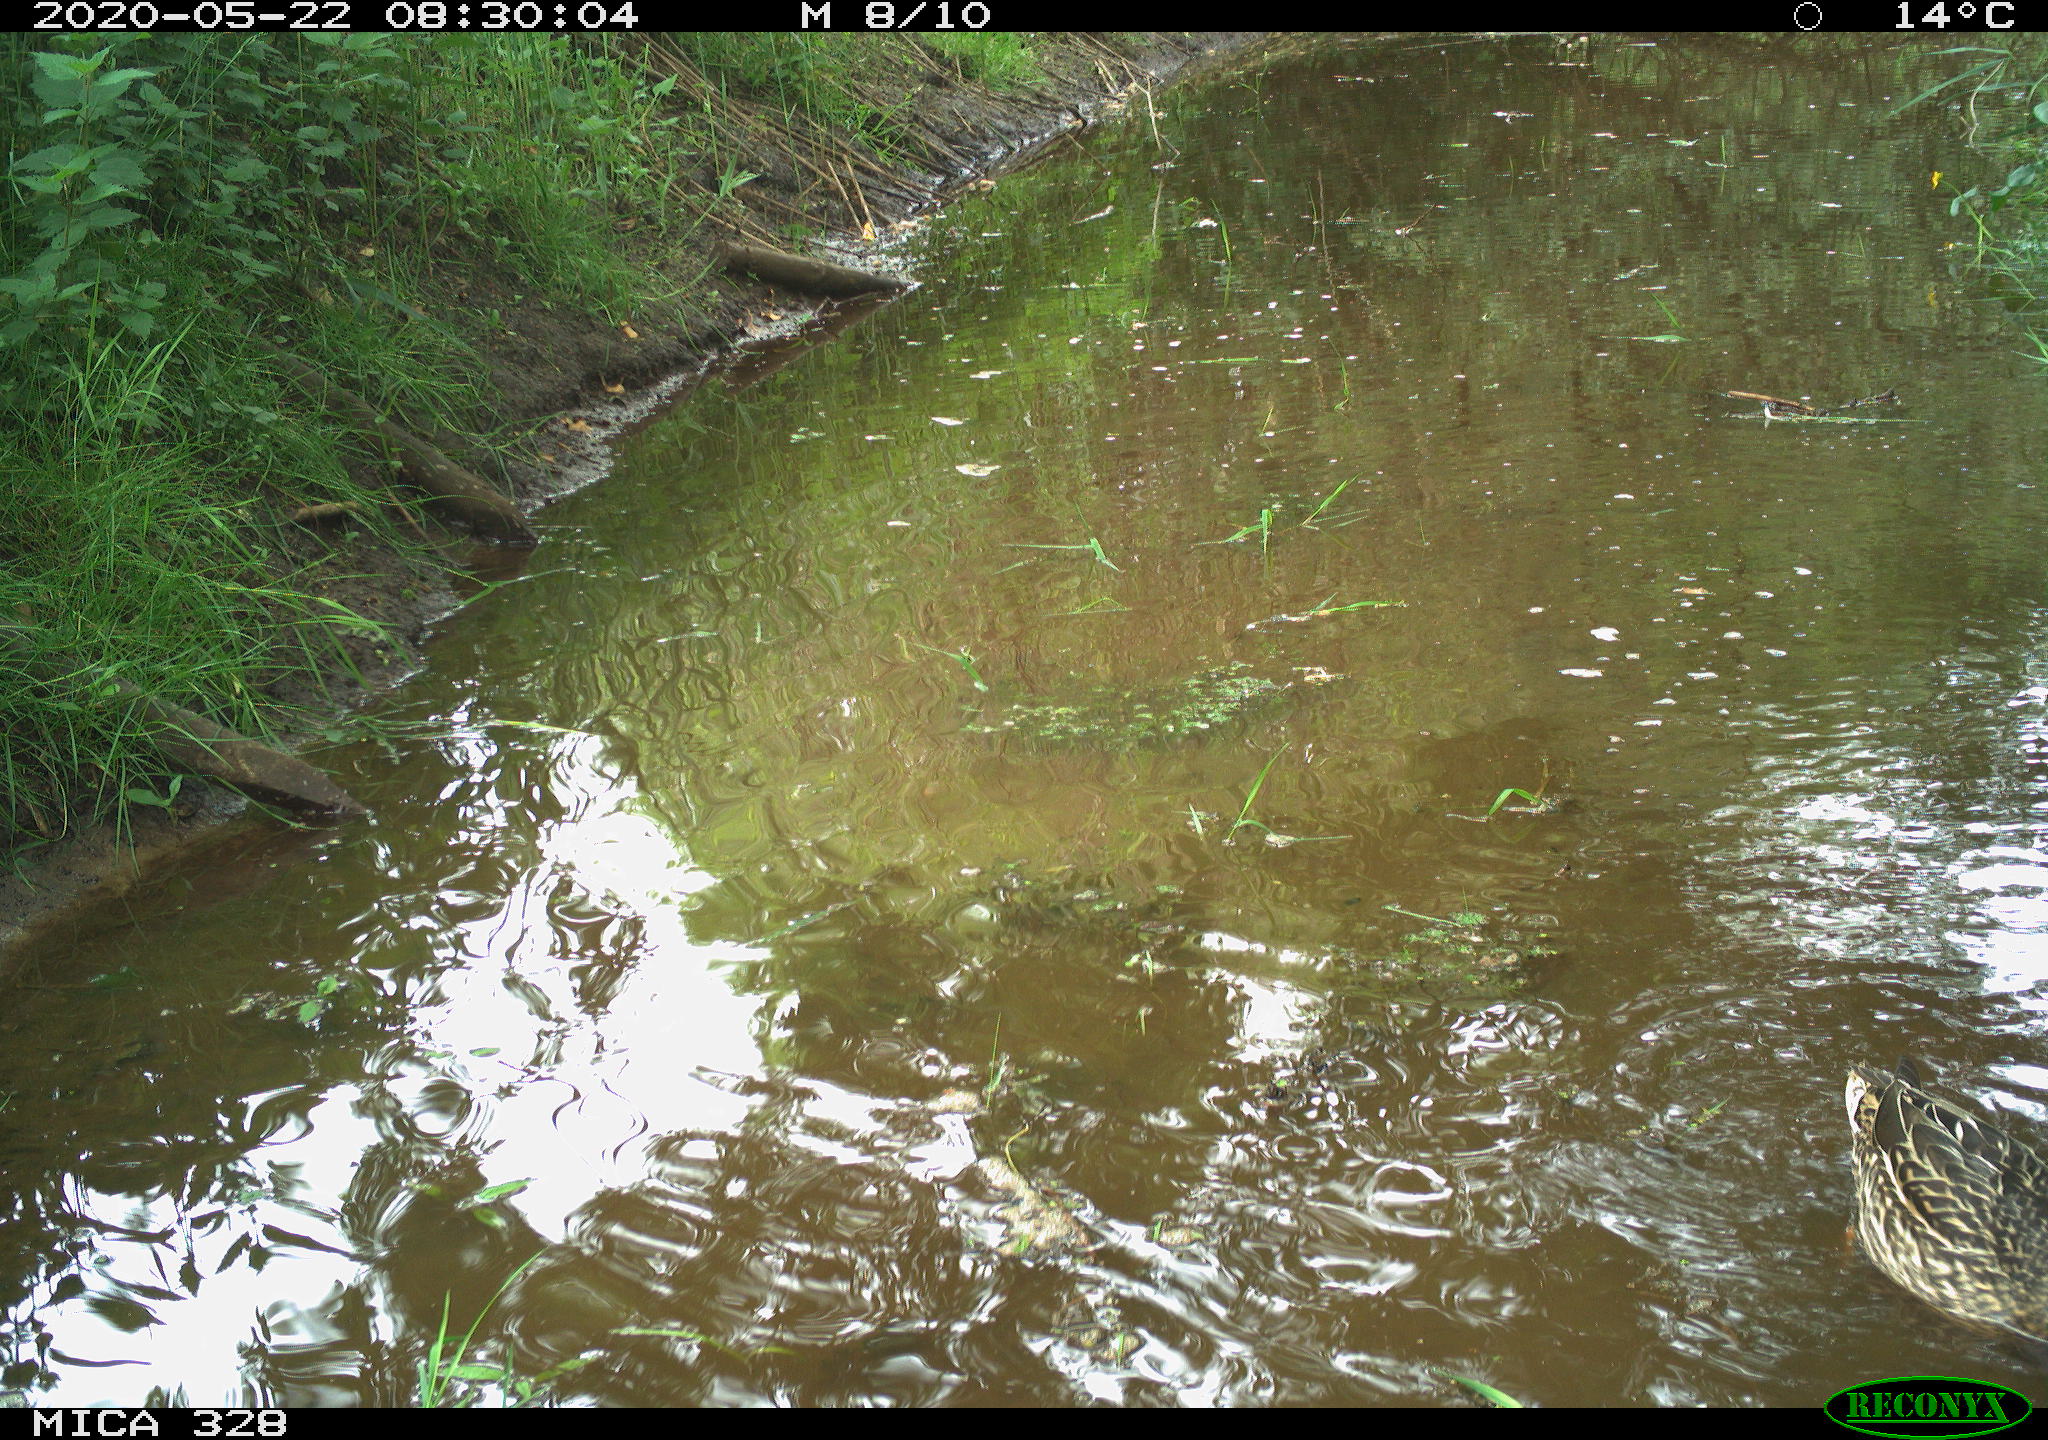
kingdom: Animalia
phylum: Chordata
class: Aves
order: Anseriformes
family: Anatidae
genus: Anas
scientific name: Anas platyrhynchos
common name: Mallard
